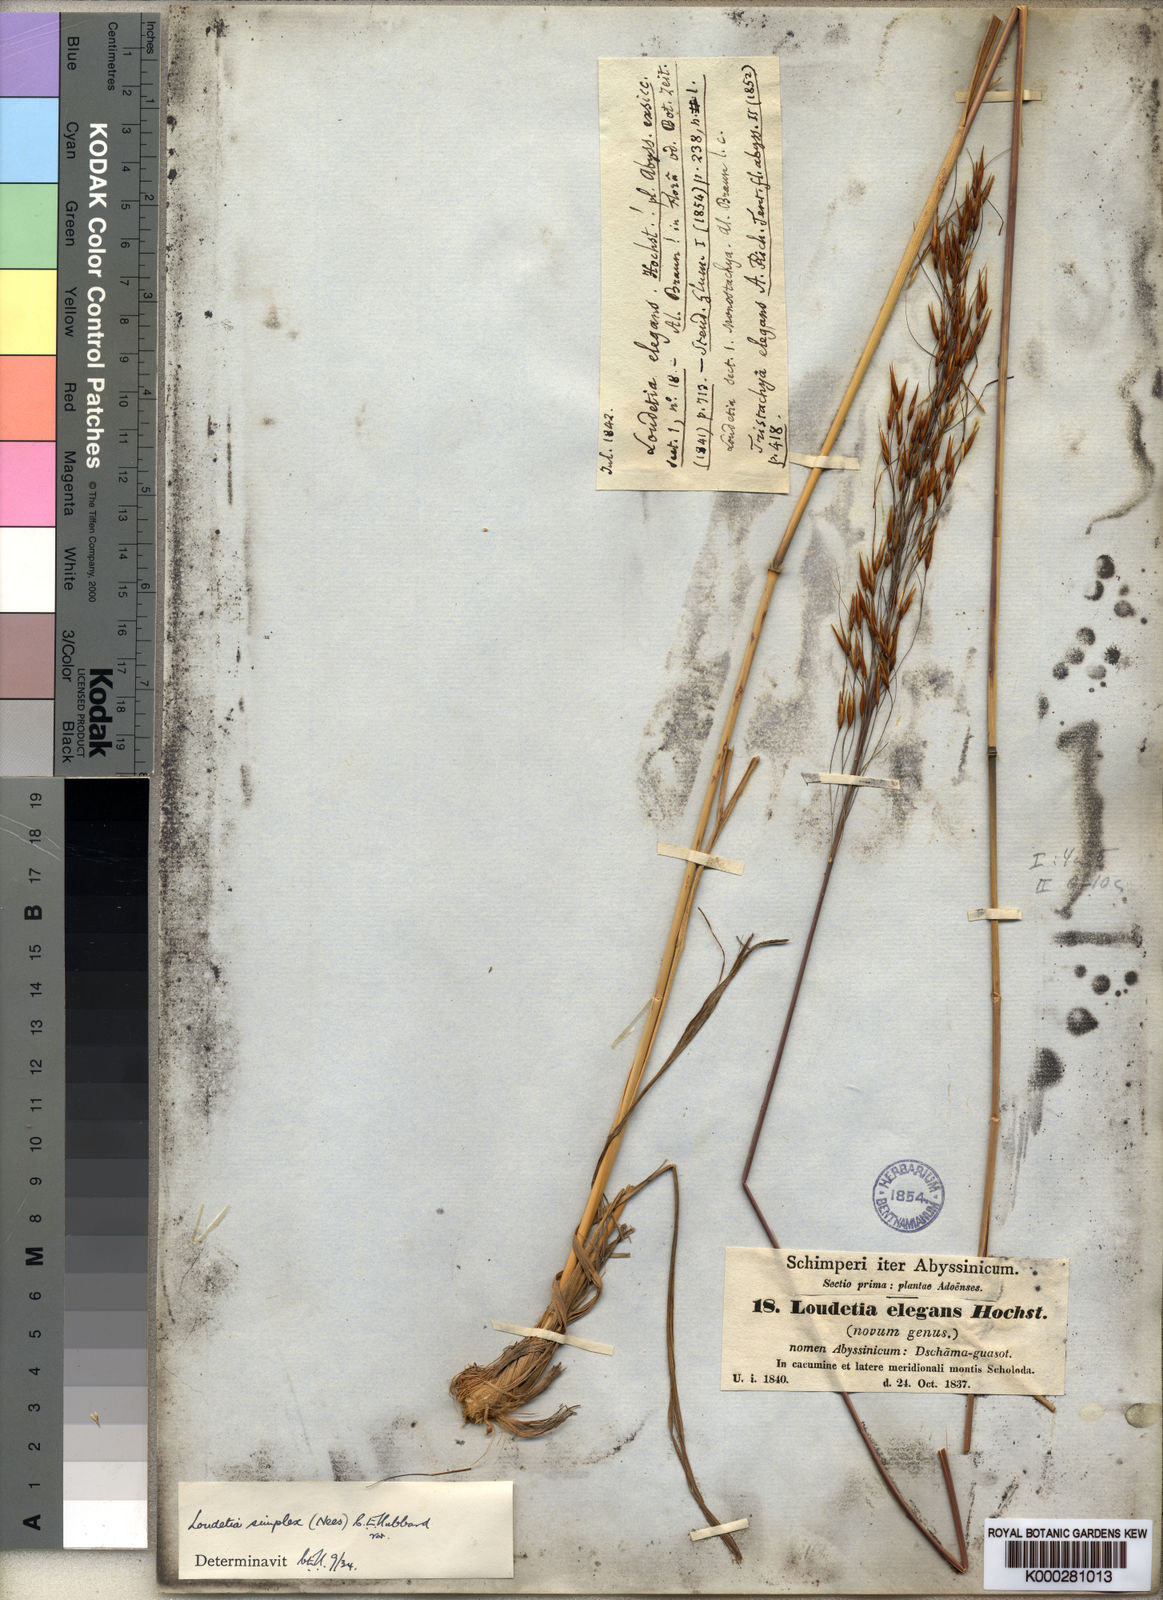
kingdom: Plantae
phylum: Tracheophyta
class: Liliopsida
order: Poales
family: Poaceae
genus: Loudetia
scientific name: Loudetia simplex
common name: Common russet grass
